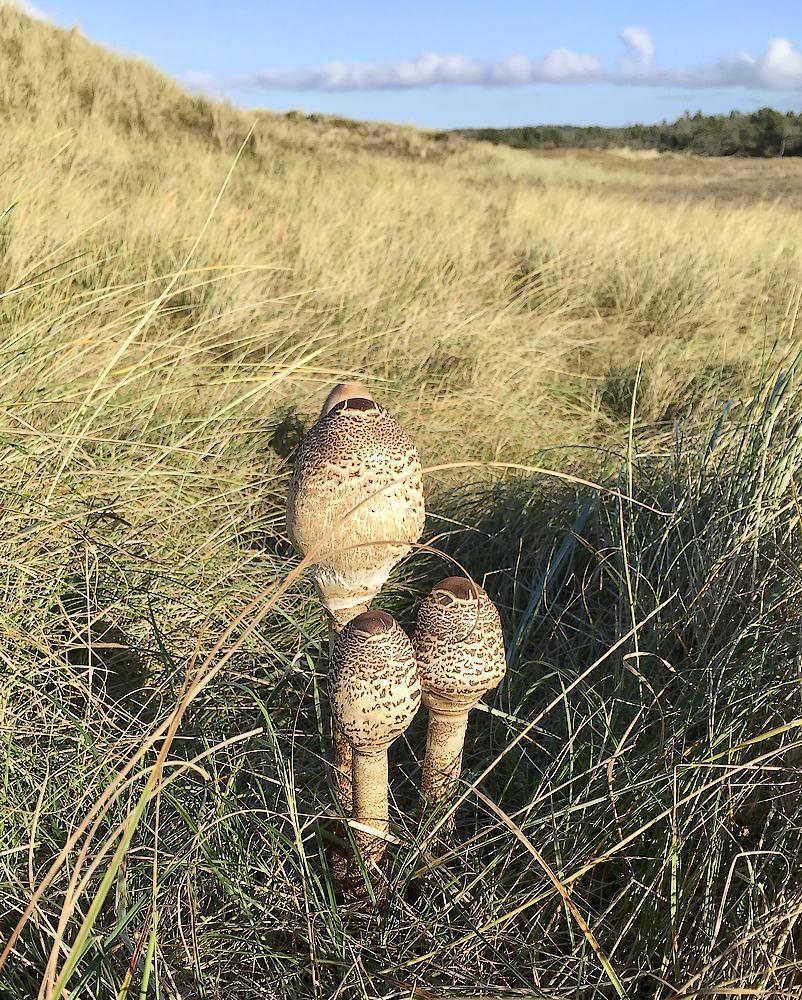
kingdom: Fungi
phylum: Basidiomycota
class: Agaricomycetes
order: Agaricales
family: Agaricaceae
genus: Macrolepiota
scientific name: Macrolepiota procera
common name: stor kæmpeparasolhat
